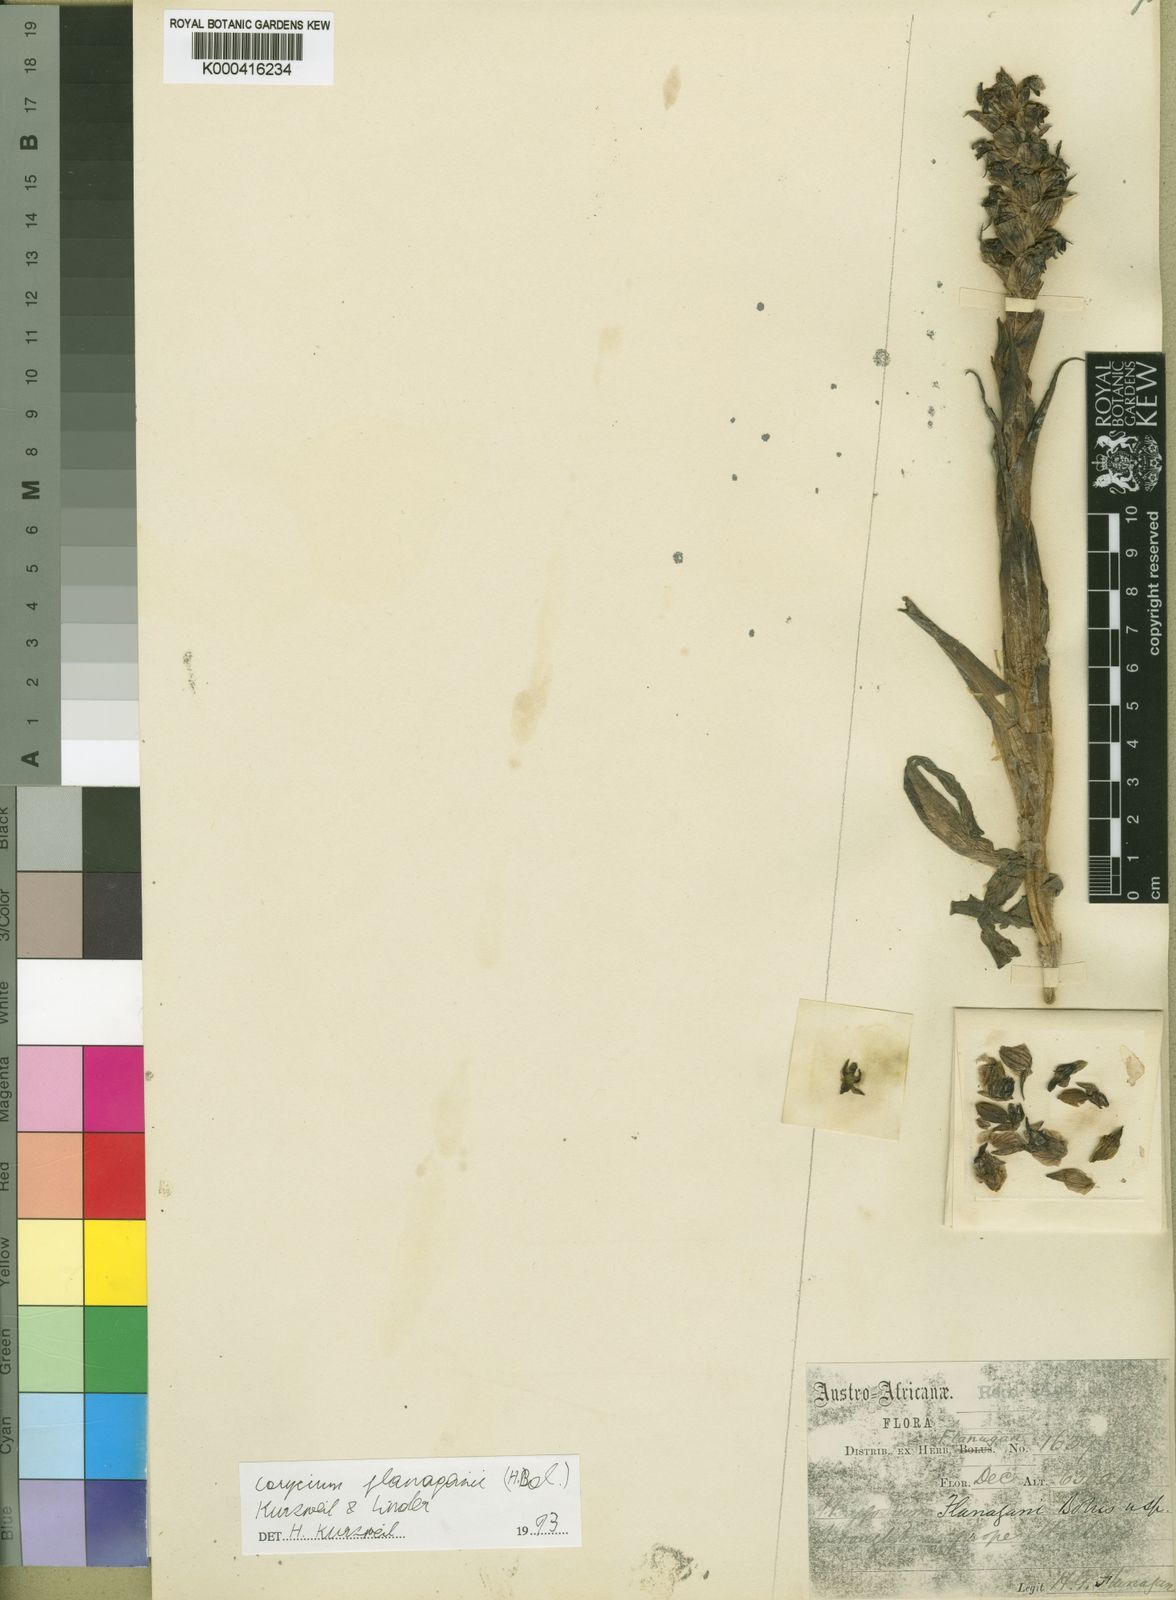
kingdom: Plantae
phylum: Tracheophyta
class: Liliopsida
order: Asparagales
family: Orchidaceae
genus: Corycium
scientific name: Corycium flanaganii
